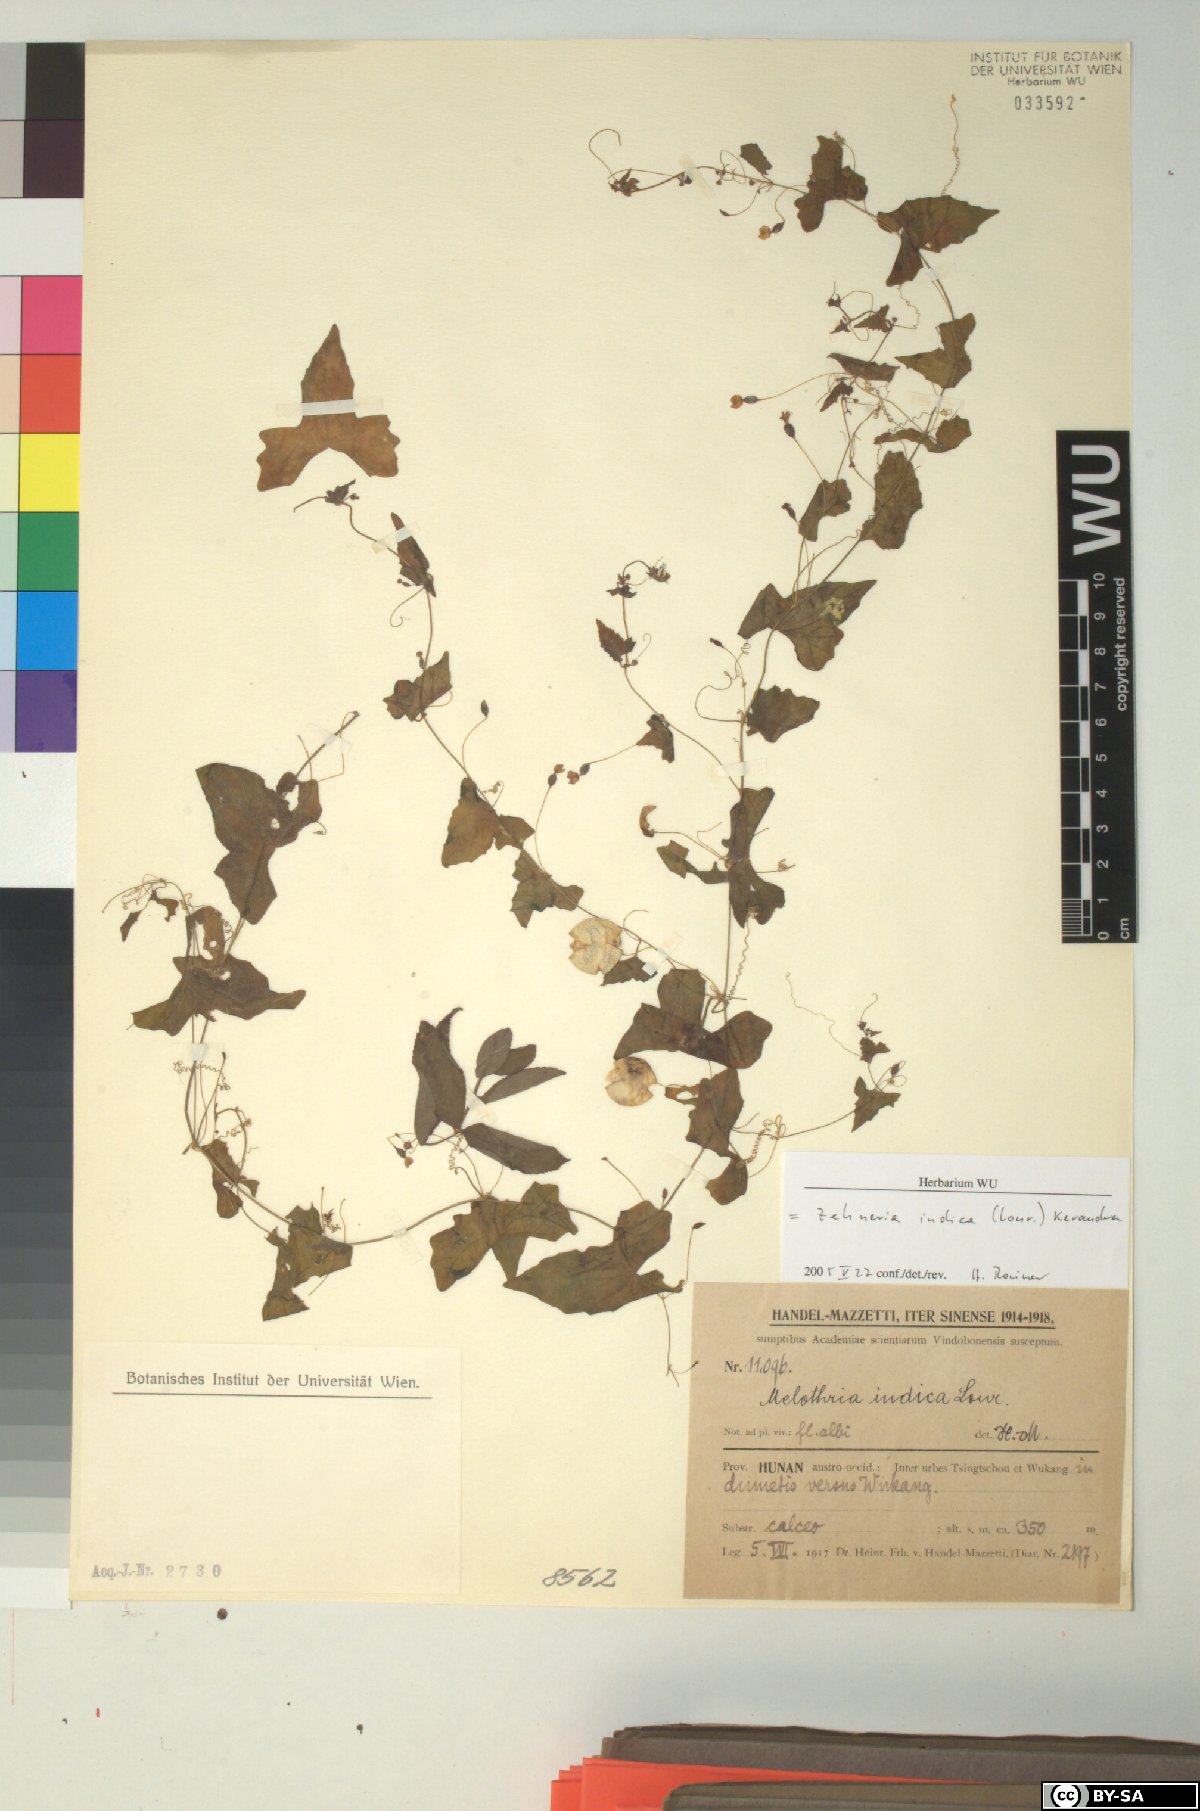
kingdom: Plantae
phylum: Tracheophyta
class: Magnoliopsida
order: Cucurbitales
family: Cucurbitaceae
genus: Zehneria
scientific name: Zehneria odorata
